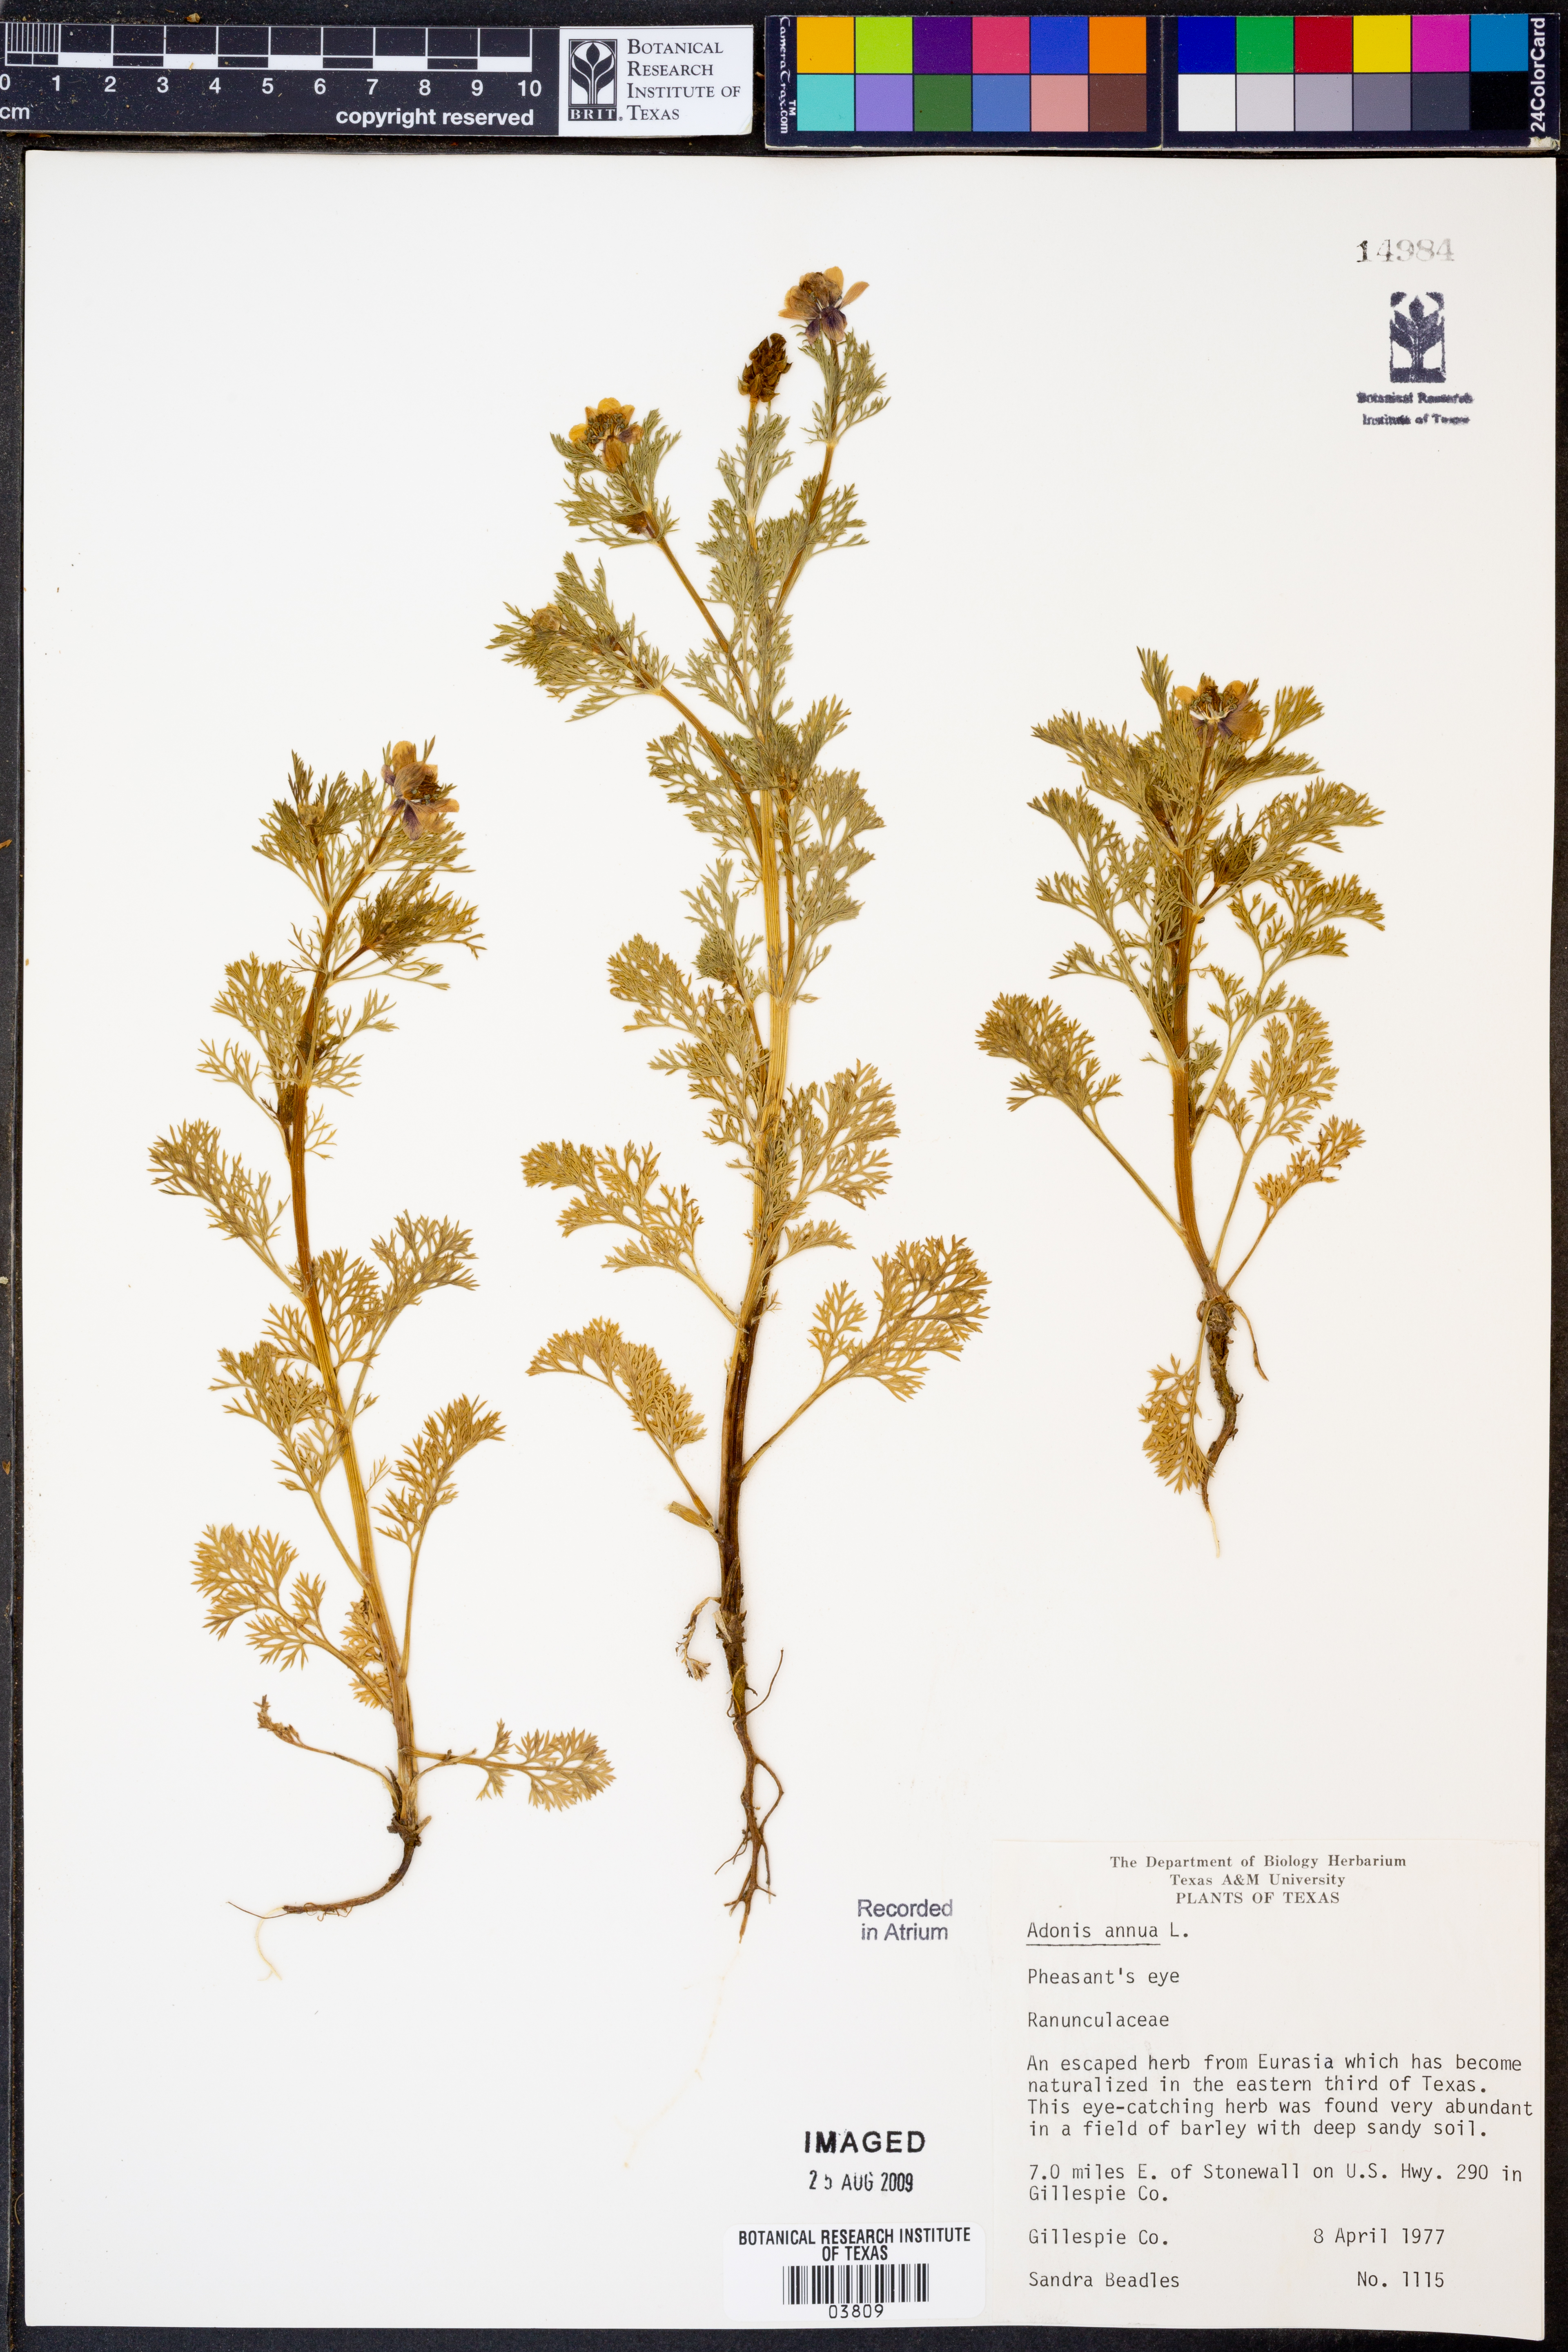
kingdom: Plantae
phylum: Tracheophyta
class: Magnoliopsida
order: Ranunculales
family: Ranunculaceae
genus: Adonis
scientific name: Adonis annua
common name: Pheasant's-eye
